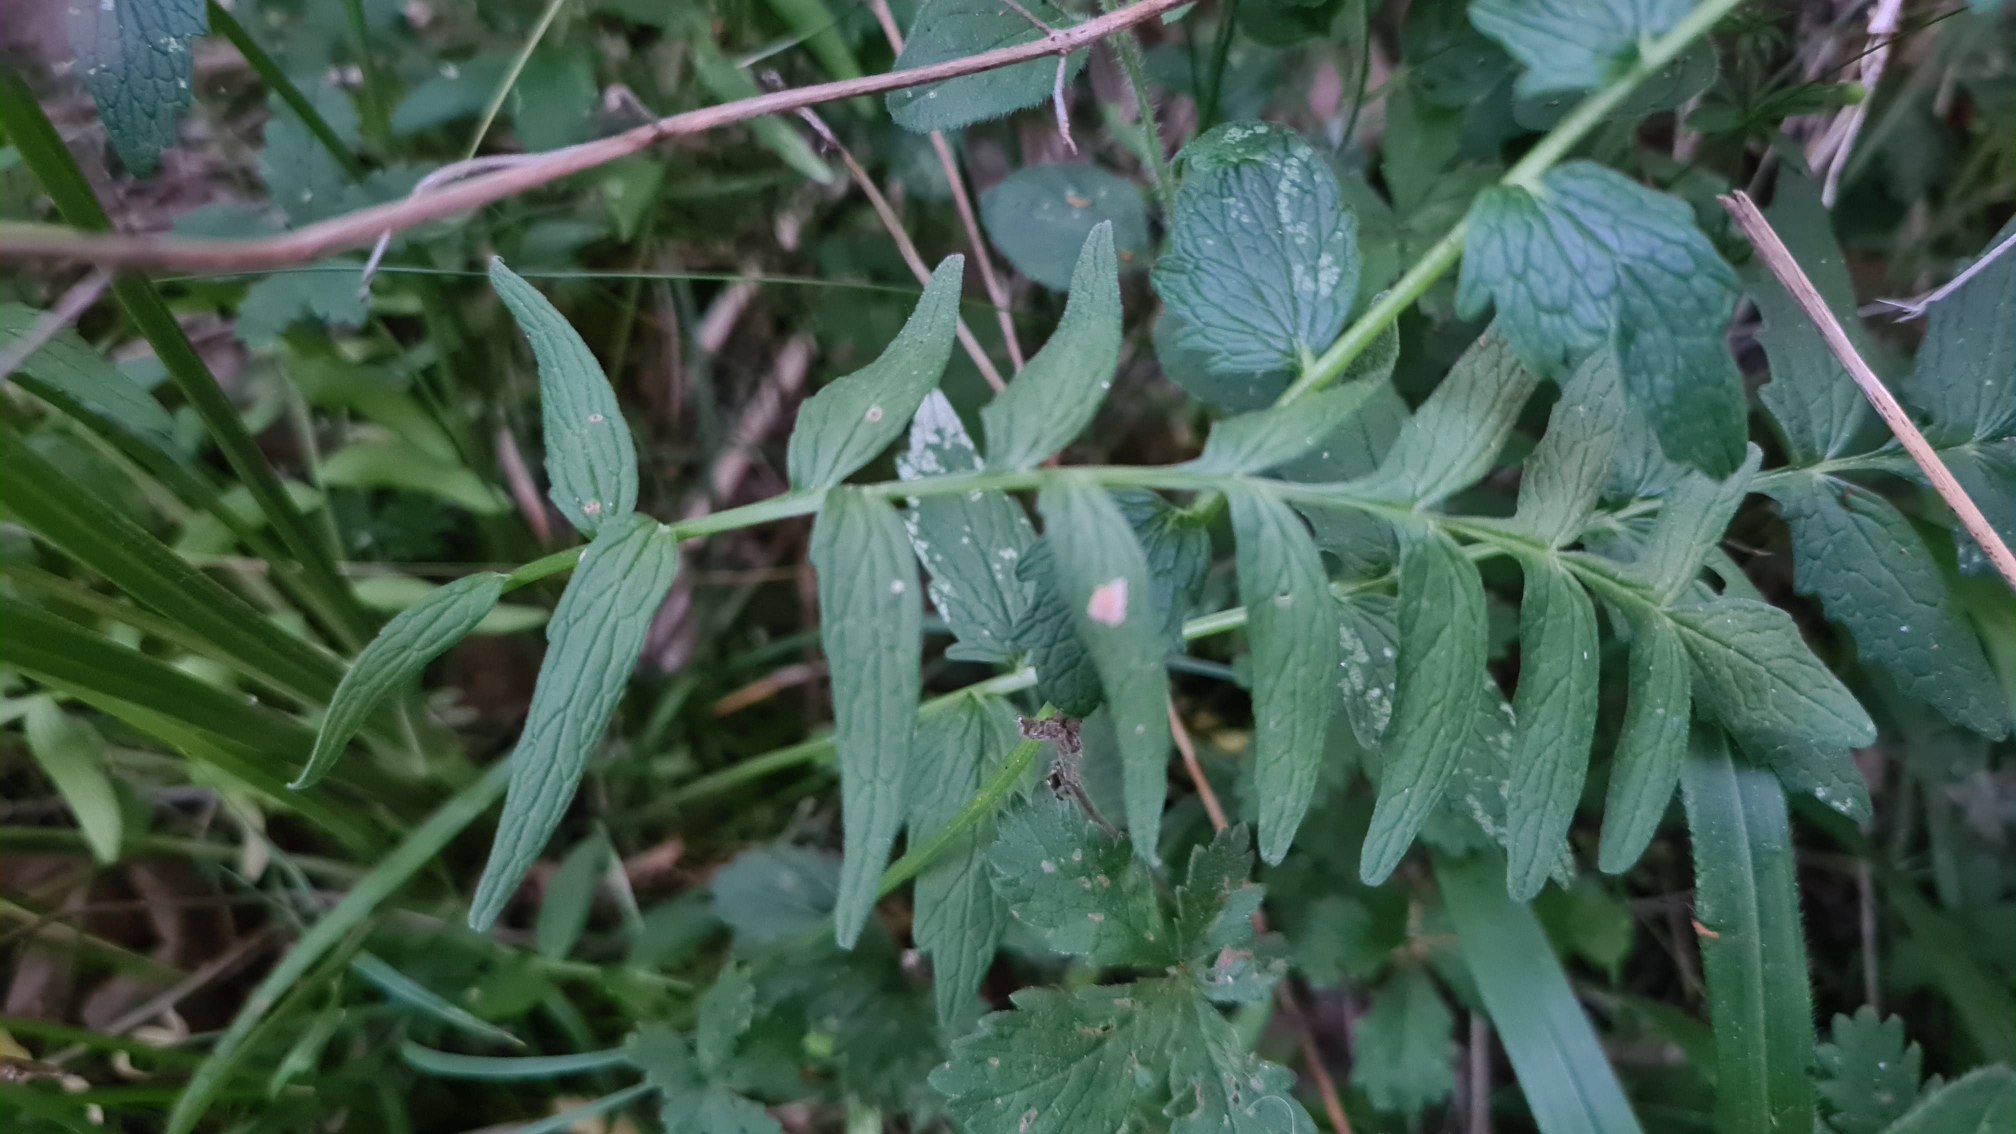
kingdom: Plantae
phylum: Tracheophyta
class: Magnoliopsida
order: Dipsacales
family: Caprifoliaceae
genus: Valeriana
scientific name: Valeriana officinalis
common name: Læge-baldrian
